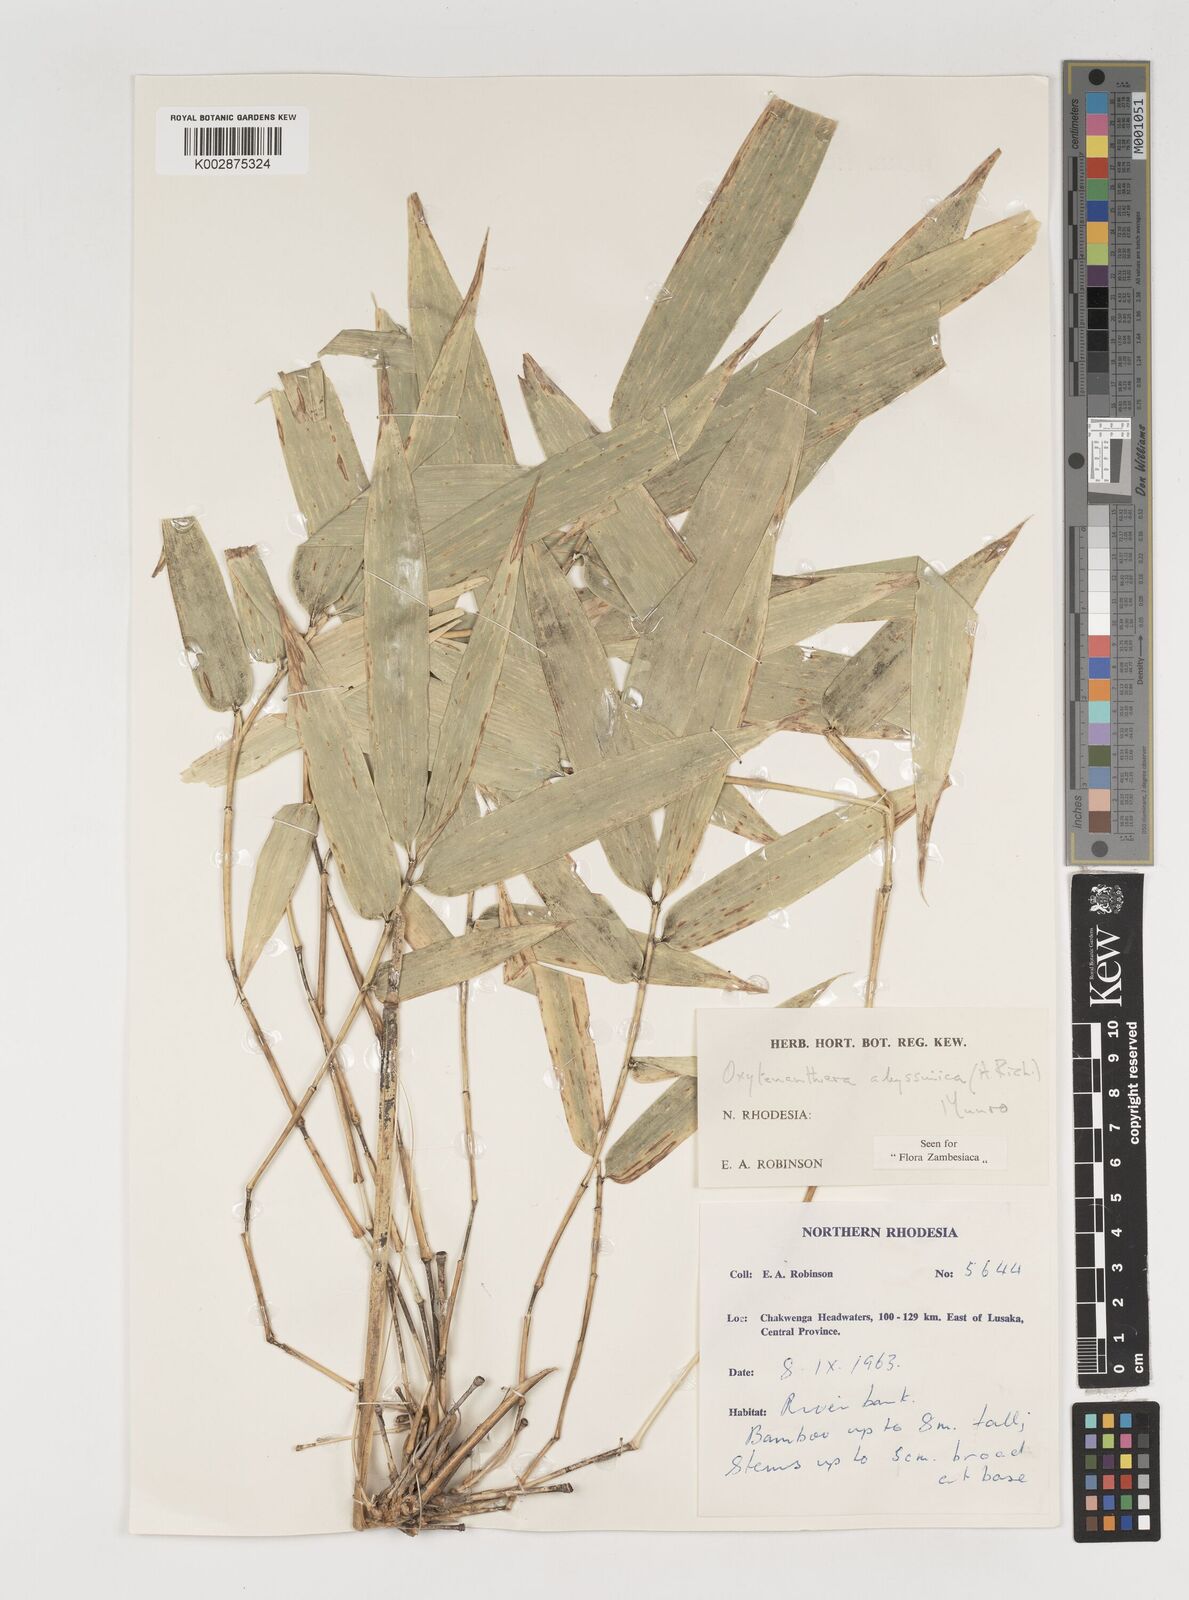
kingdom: Plantae
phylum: Tracheophyta
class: Liliopsida
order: Poales
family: Poaceae
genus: Oxytenanthera
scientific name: Oxytenanthera abyssinica
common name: Wine bamboo
